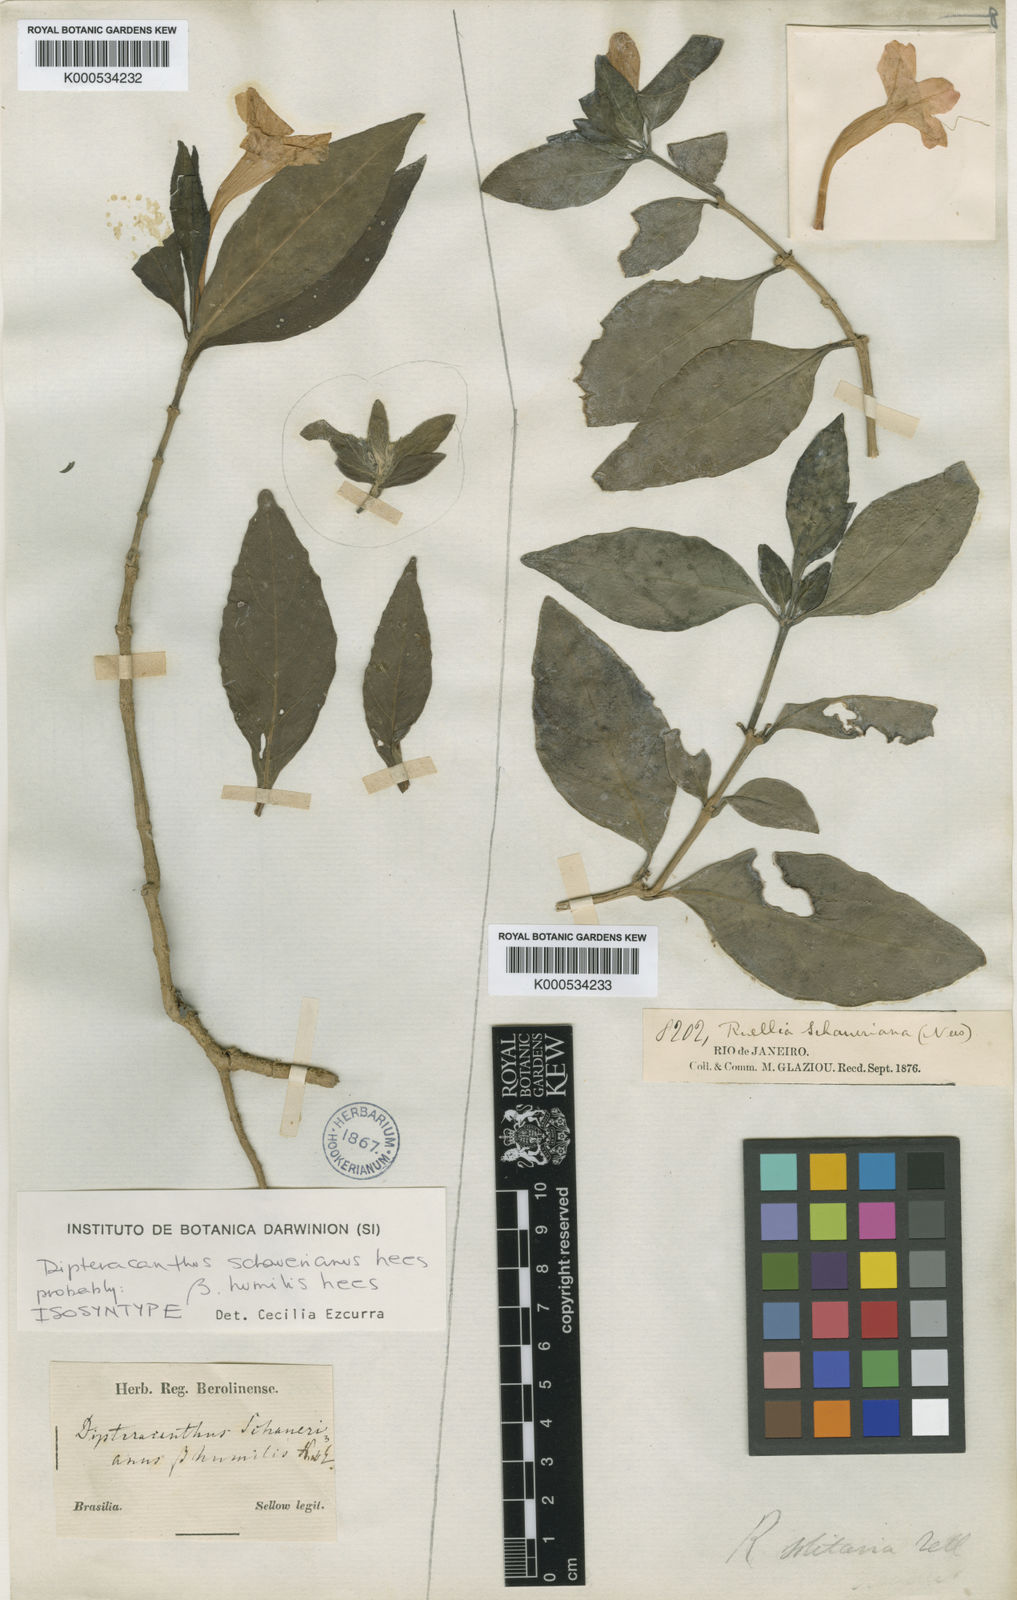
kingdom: Plantae
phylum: Tracheophyta
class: Magnoliopsida
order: Lamiales
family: Acanthaceae
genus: Ruellia
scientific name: Ruellia
